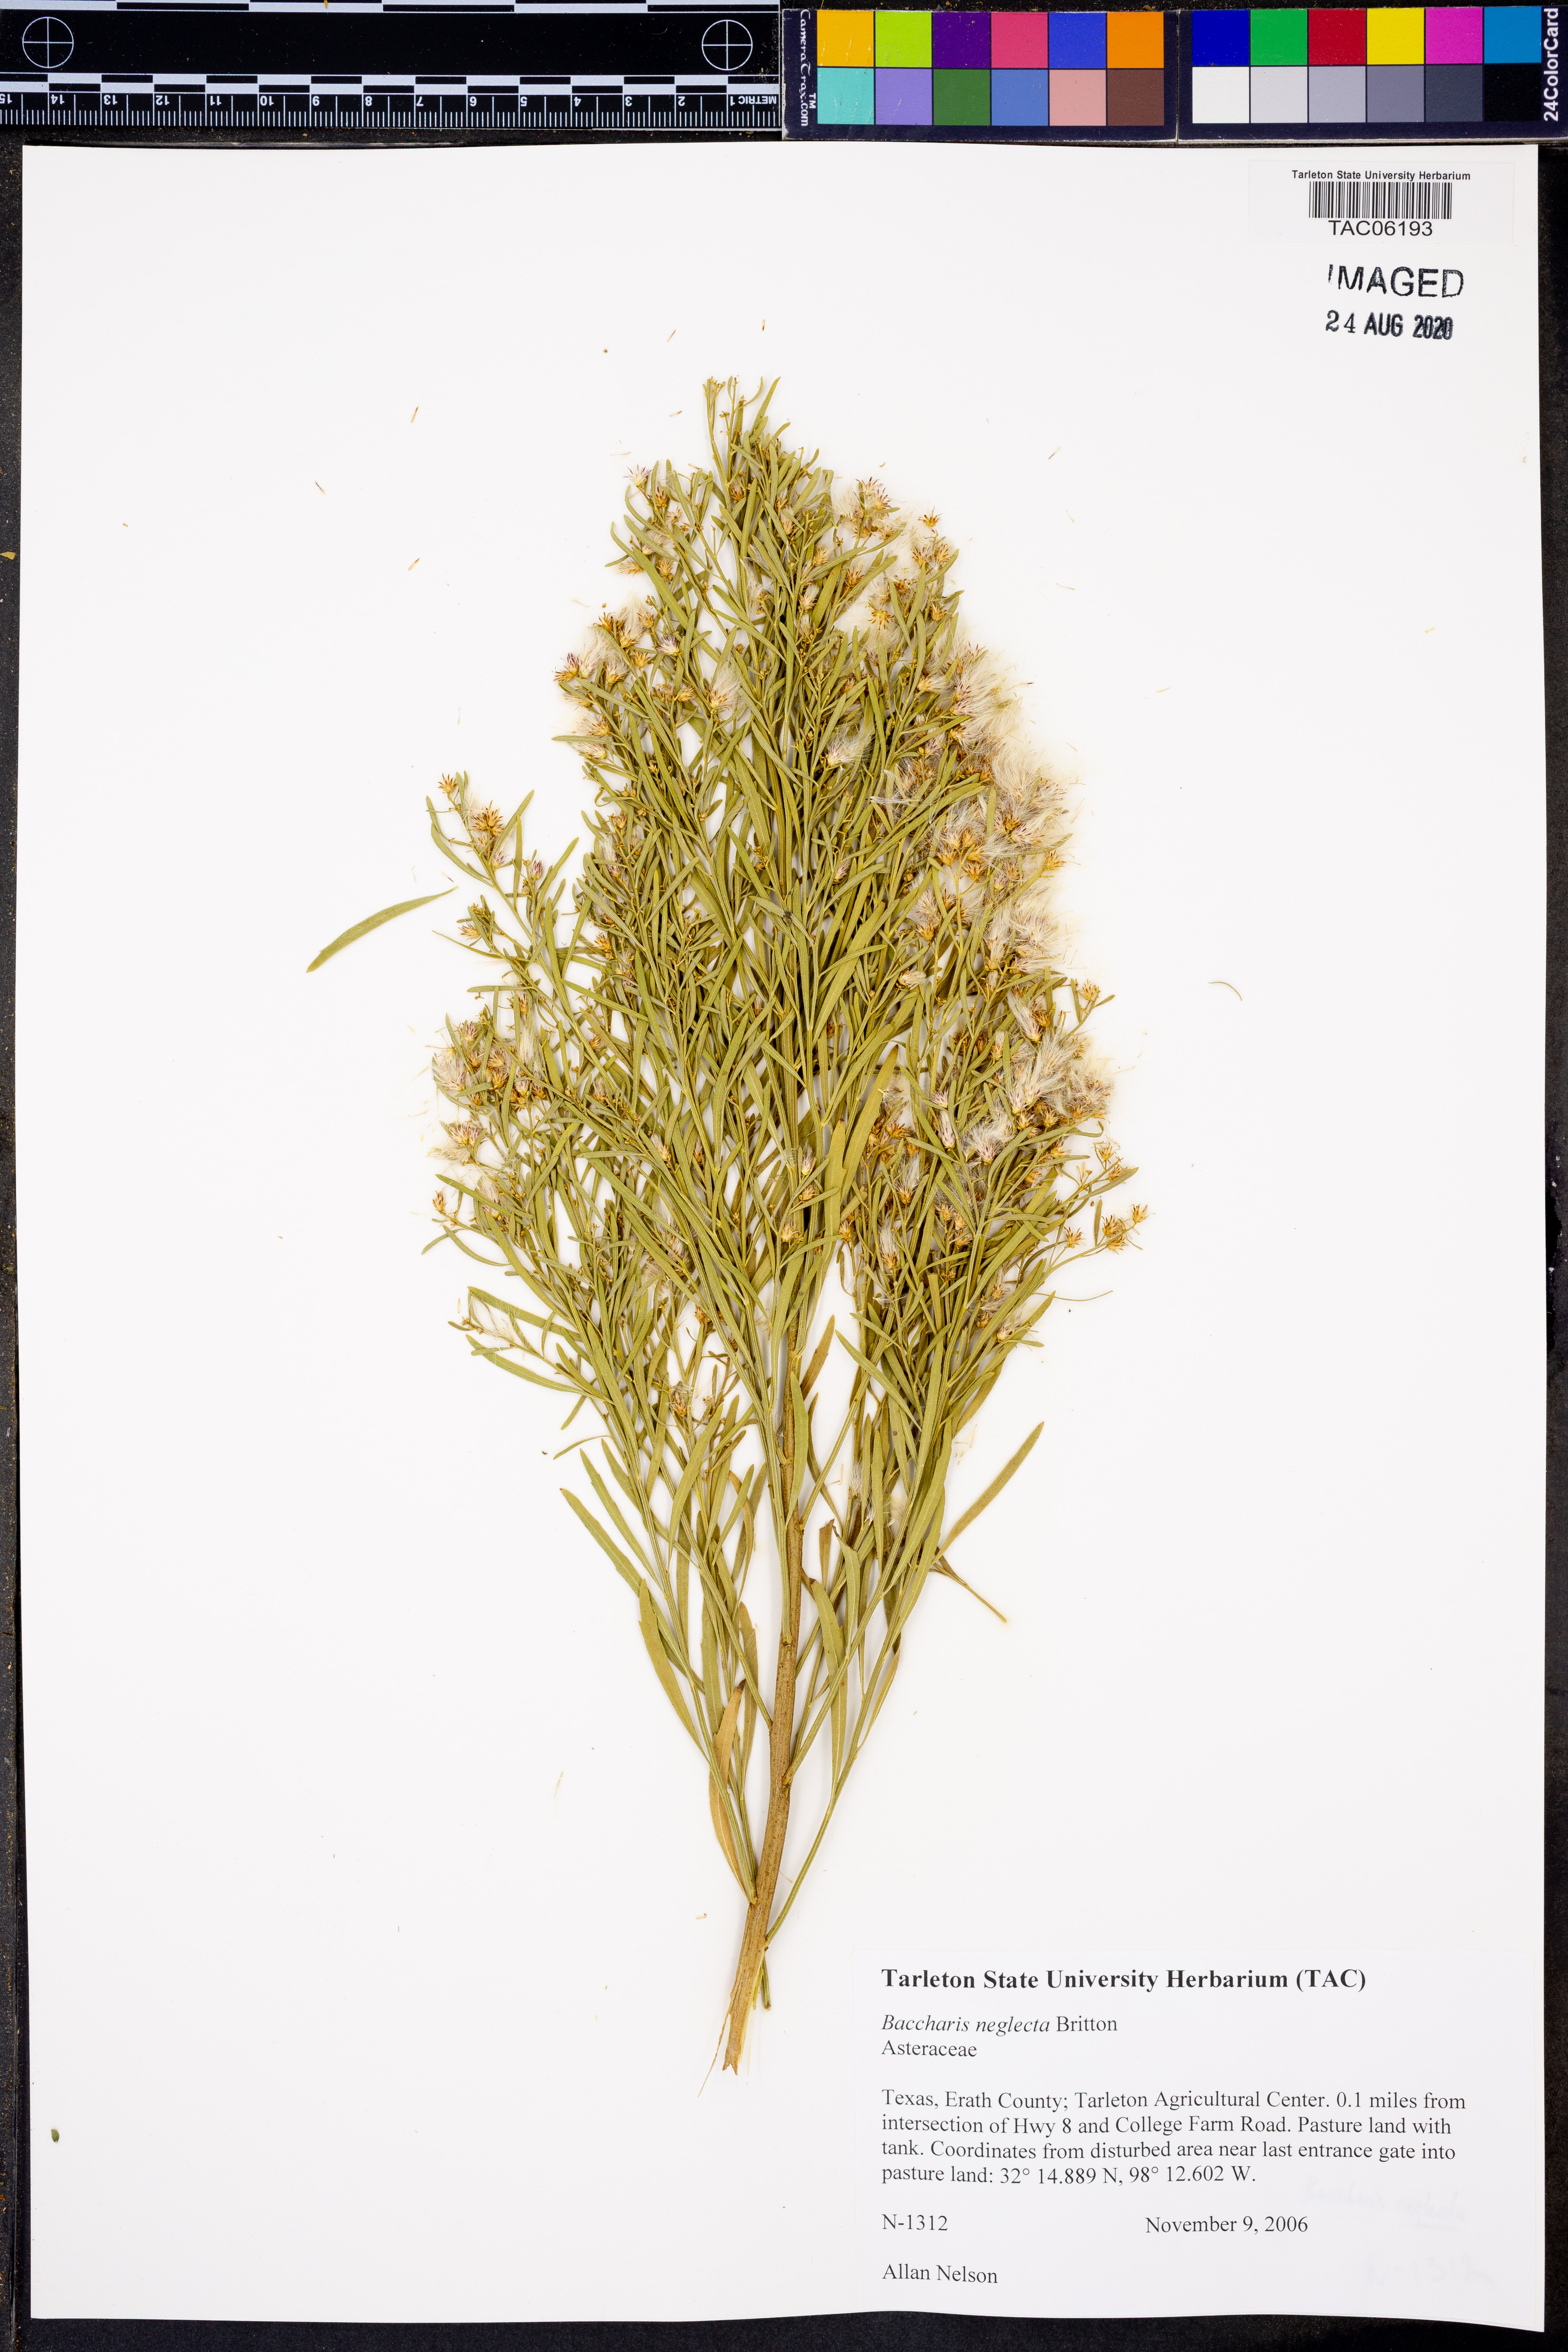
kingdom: Plantae
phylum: Tracheophyta
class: Magnoliopsida
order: Asterales
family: Asteraceae
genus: Baccharis
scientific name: Baccharis neglecta
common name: Roosevelt-weed
